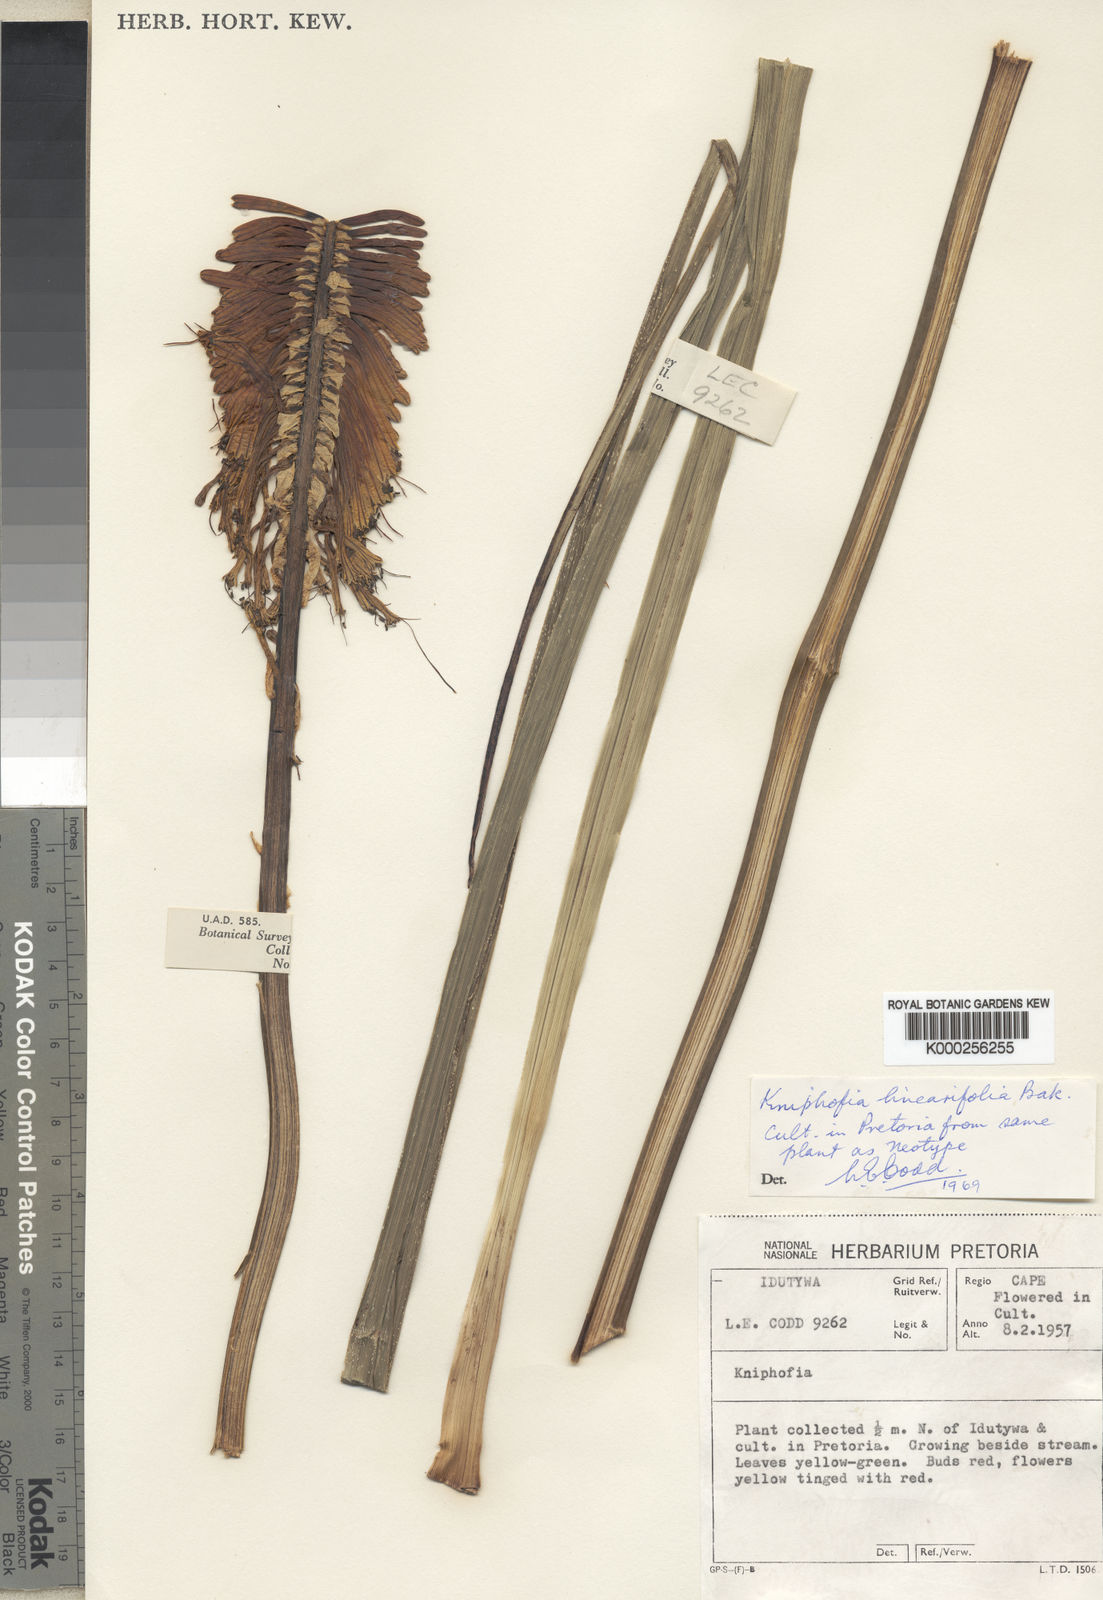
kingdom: Plantae
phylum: Tracheophyta
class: Liliopsida
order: Asparagales
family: Asphodelaceae
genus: Kniphofia
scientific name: Kniphofia linearifolia
